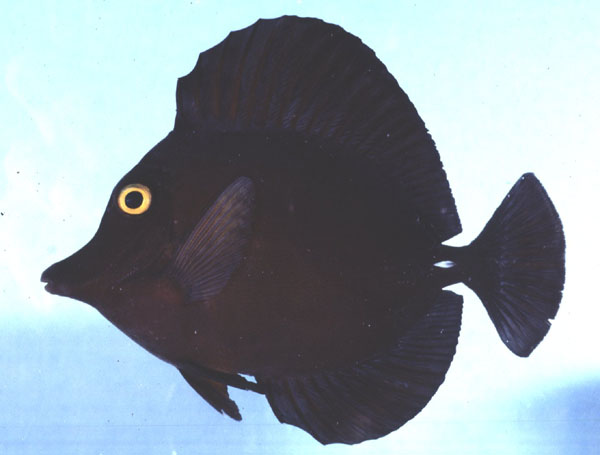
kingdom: Animalia
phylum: Chordata
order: Perciformes
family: Acanthuridae
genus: Zebrasoma
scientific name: Zebrasoma scopas
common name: Twotone tang
